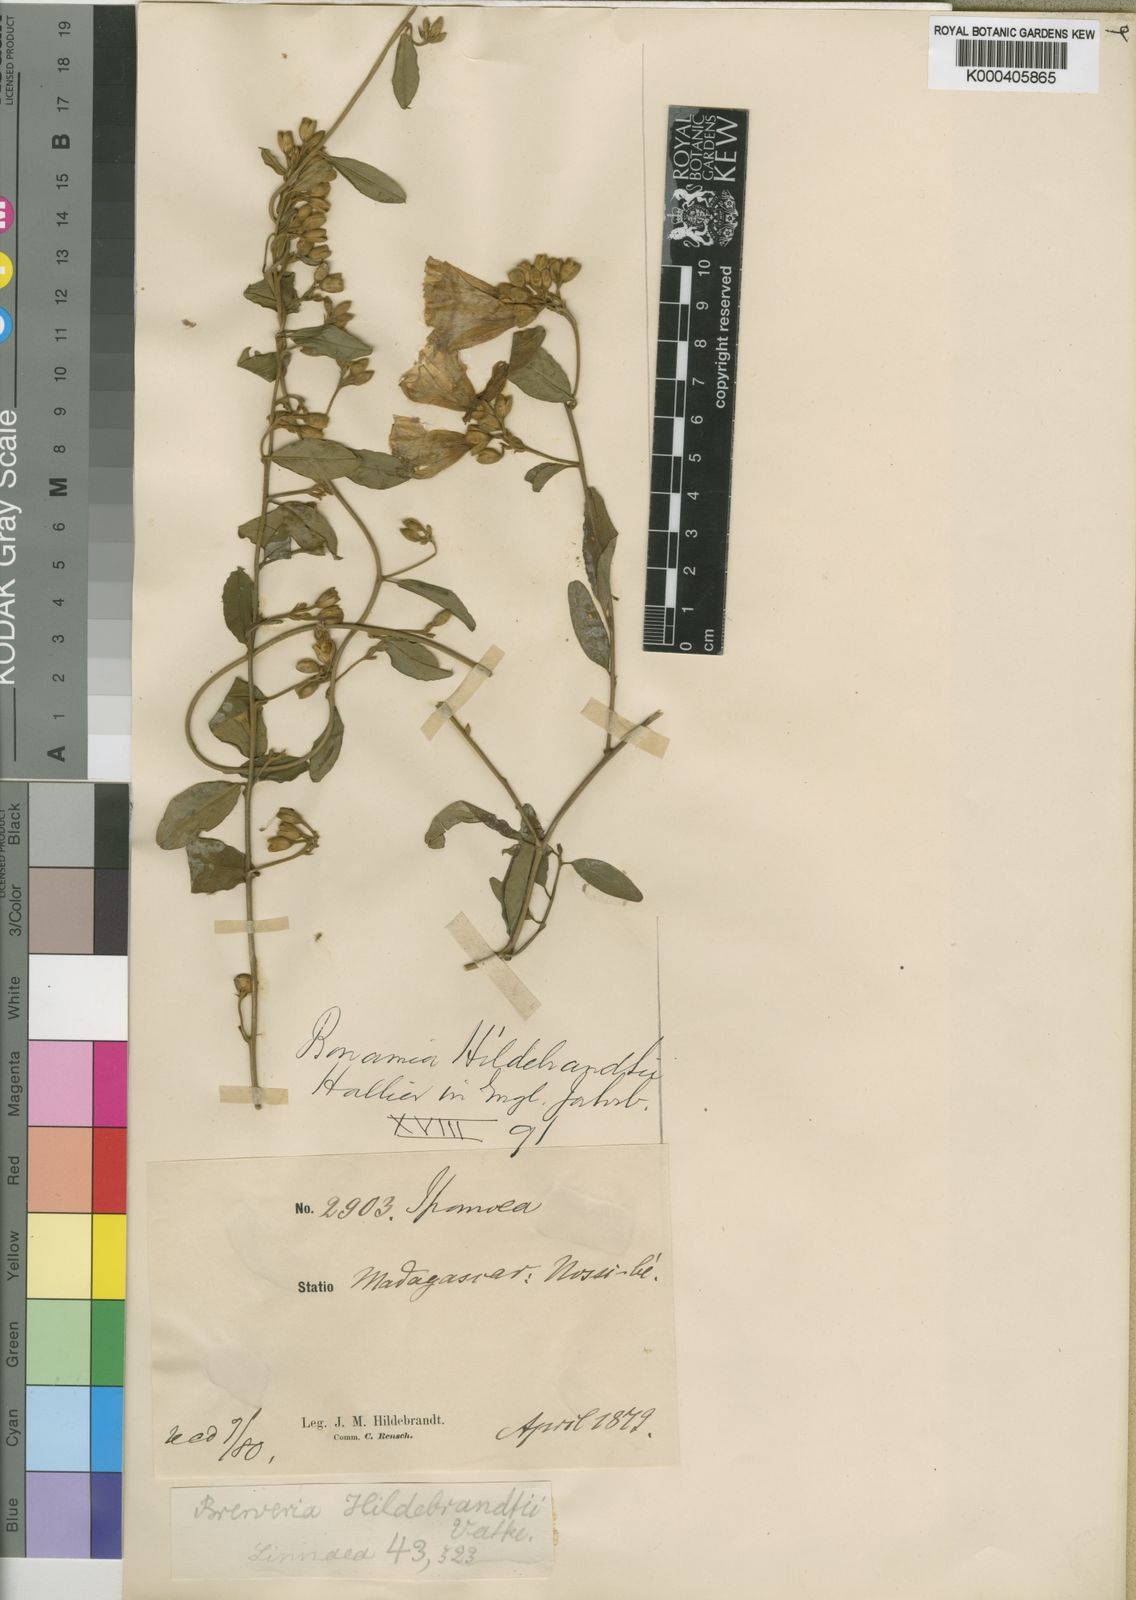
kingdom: Plantae
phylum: Tracheophyta
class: Magnoliopsida
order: Solanales
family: Convolvulaceae
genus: Bonamia
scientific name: Bonamia spectabilis
